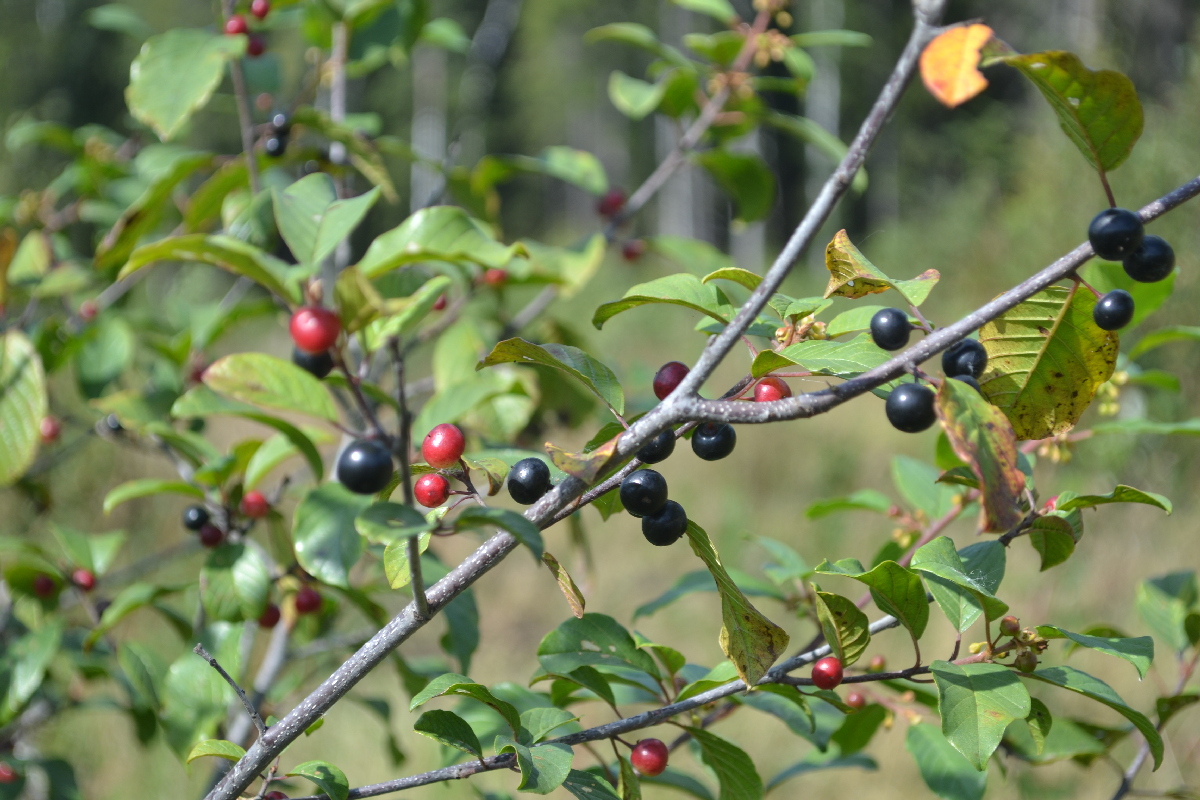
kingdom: Plantae
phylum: Tracheophyta
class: Magnoliopsida
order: Rosales
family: Rhamnaceae
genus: Frangula
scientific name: Frangula alnus
